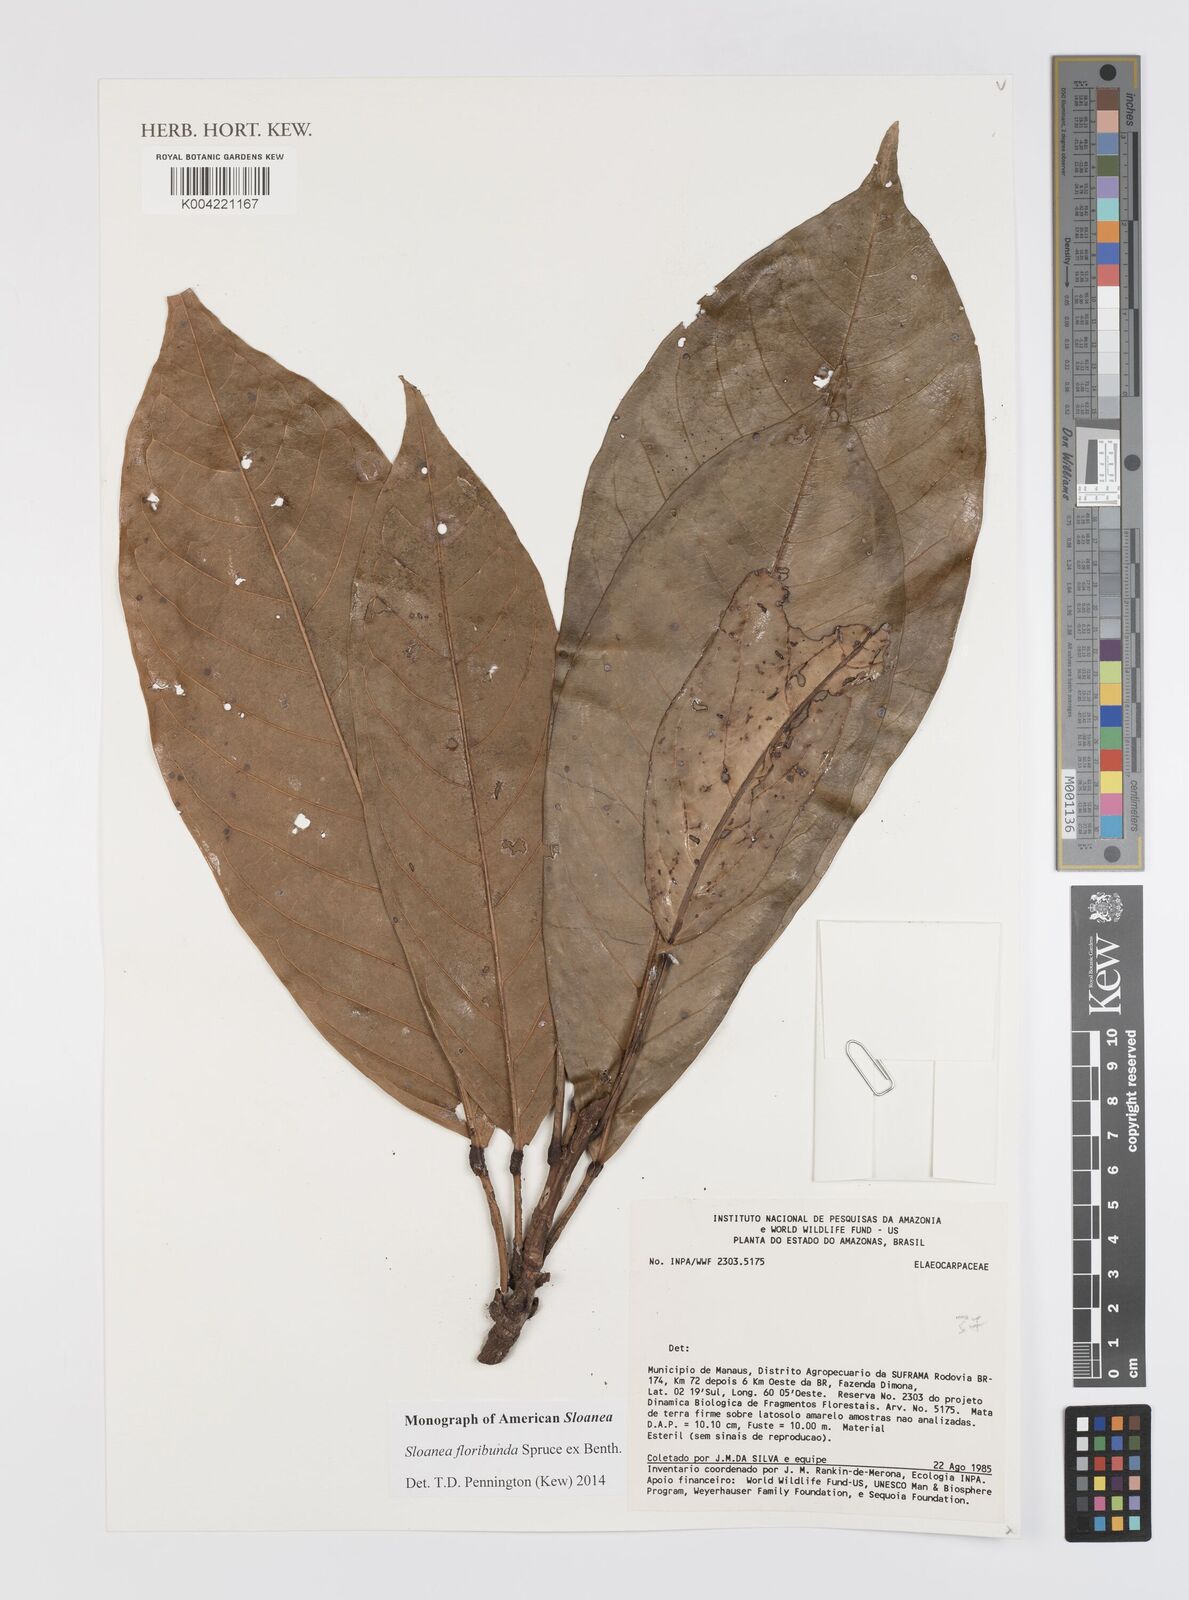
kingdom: Plantae
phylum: Tracheophyta
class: Magnoliopsida
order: Oxalidales
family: Elaeocarpaceae
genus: Sloanea
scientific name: Sloanea floribunda
